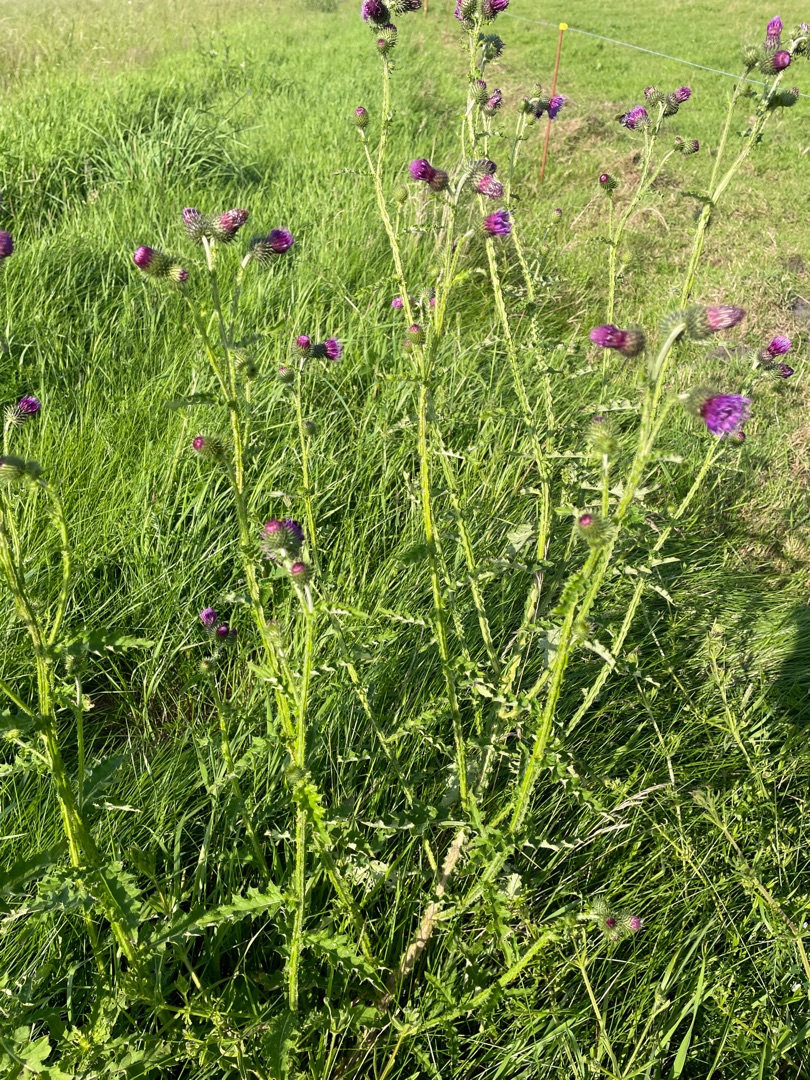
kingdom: Plantae
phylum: Tracheophyta
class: Magnoliopsida
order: Asterales
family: Asteraceae
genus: Carduus
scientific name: Carduus crispus
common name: Kruset tidsel
